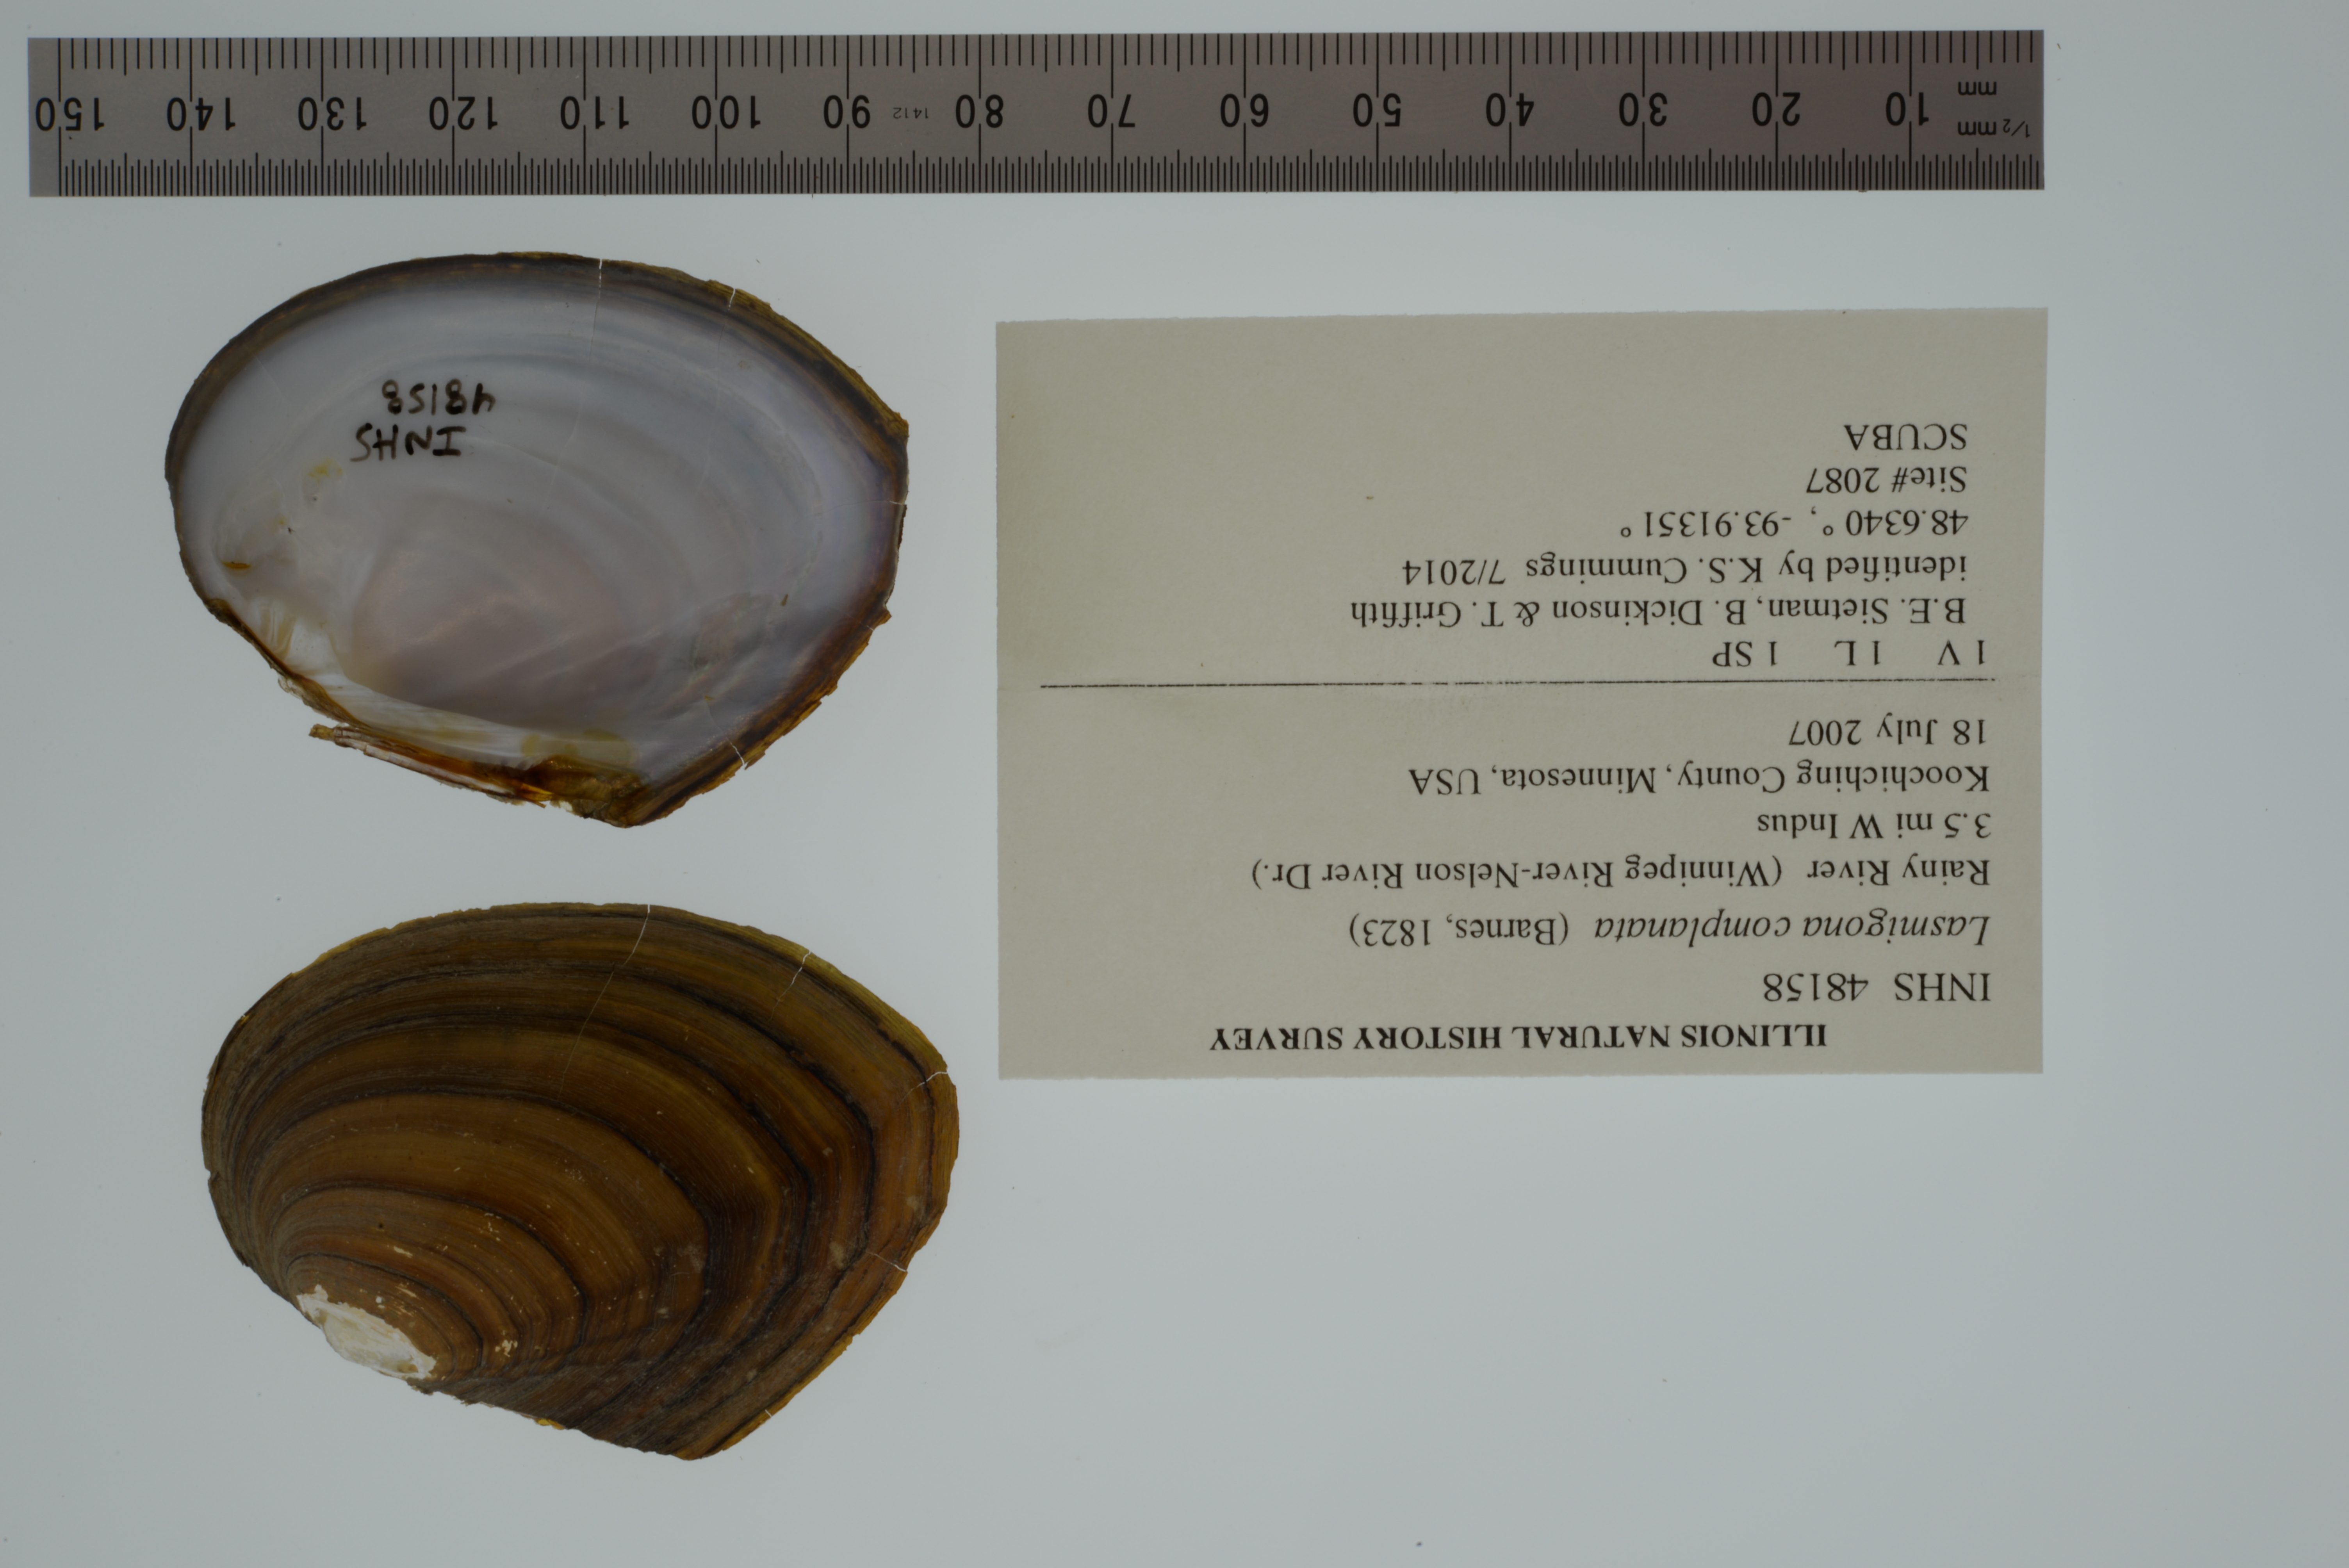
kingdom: Animalia
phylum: Mollusca
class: Bivalvia
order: Unionida
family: Unionidae
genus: Lasmigona
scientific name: Lasmigona complanata
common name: White heelsplitter
